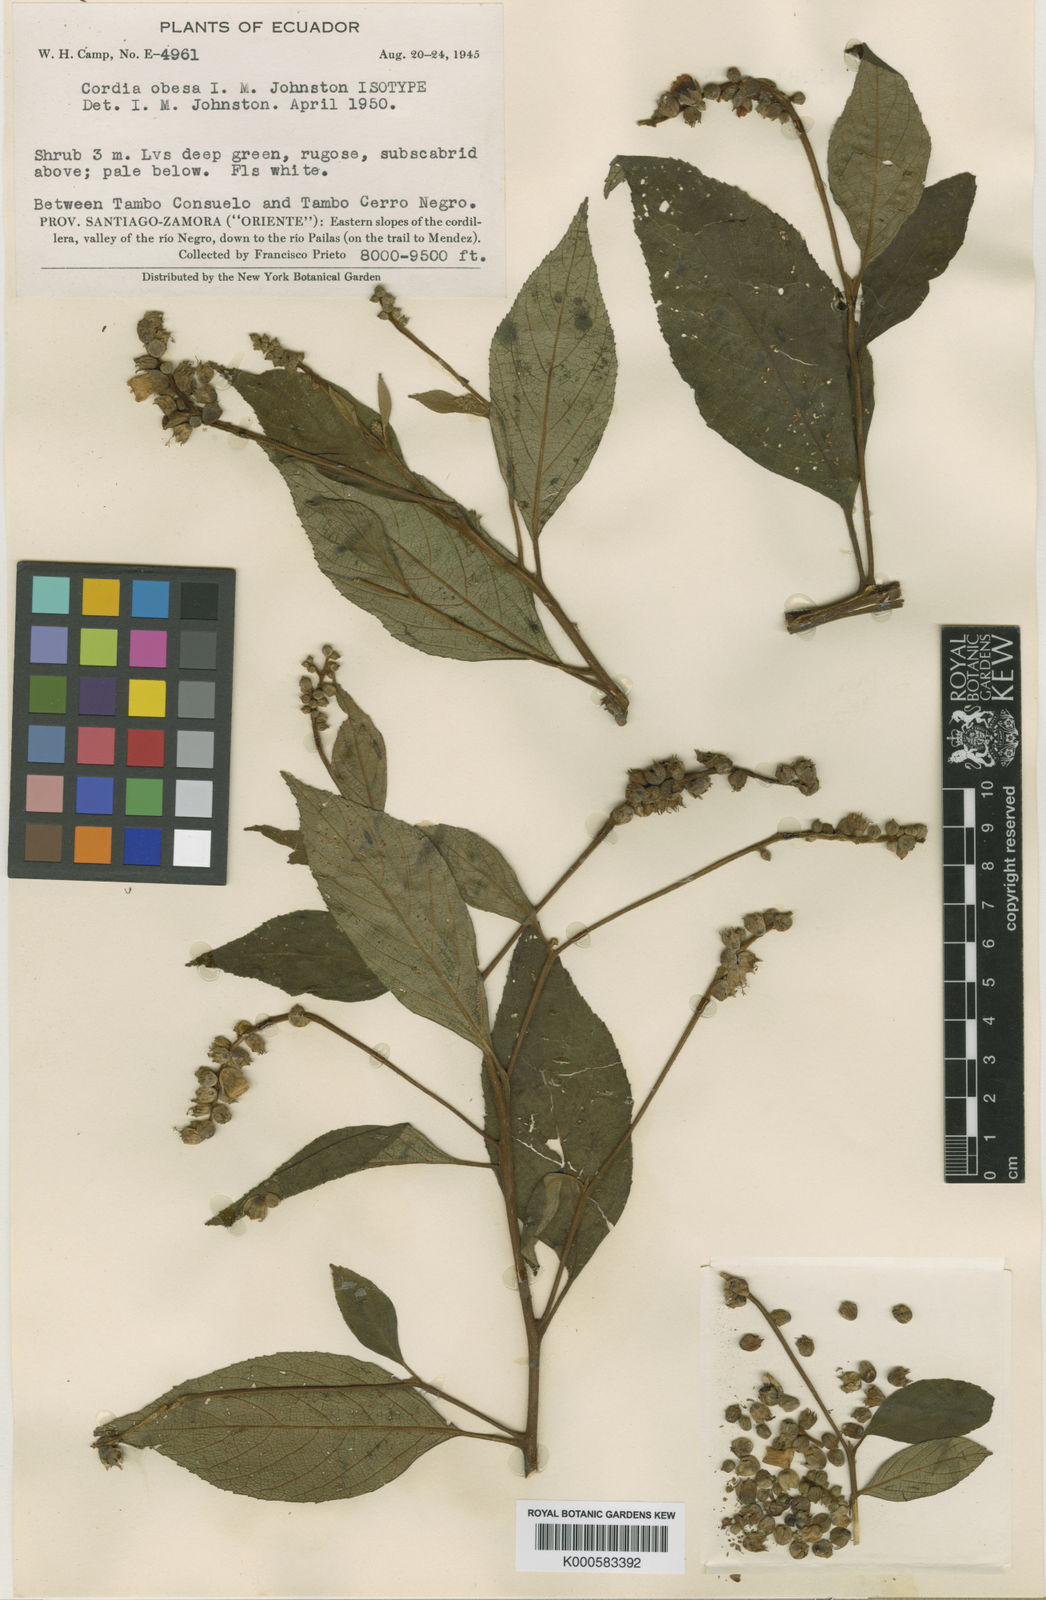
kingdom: Plantae
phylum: Tracheophyta
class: Magnoliopsida
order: Boraginales
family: Cordiaceae
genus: Cordia
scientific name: Cordia
